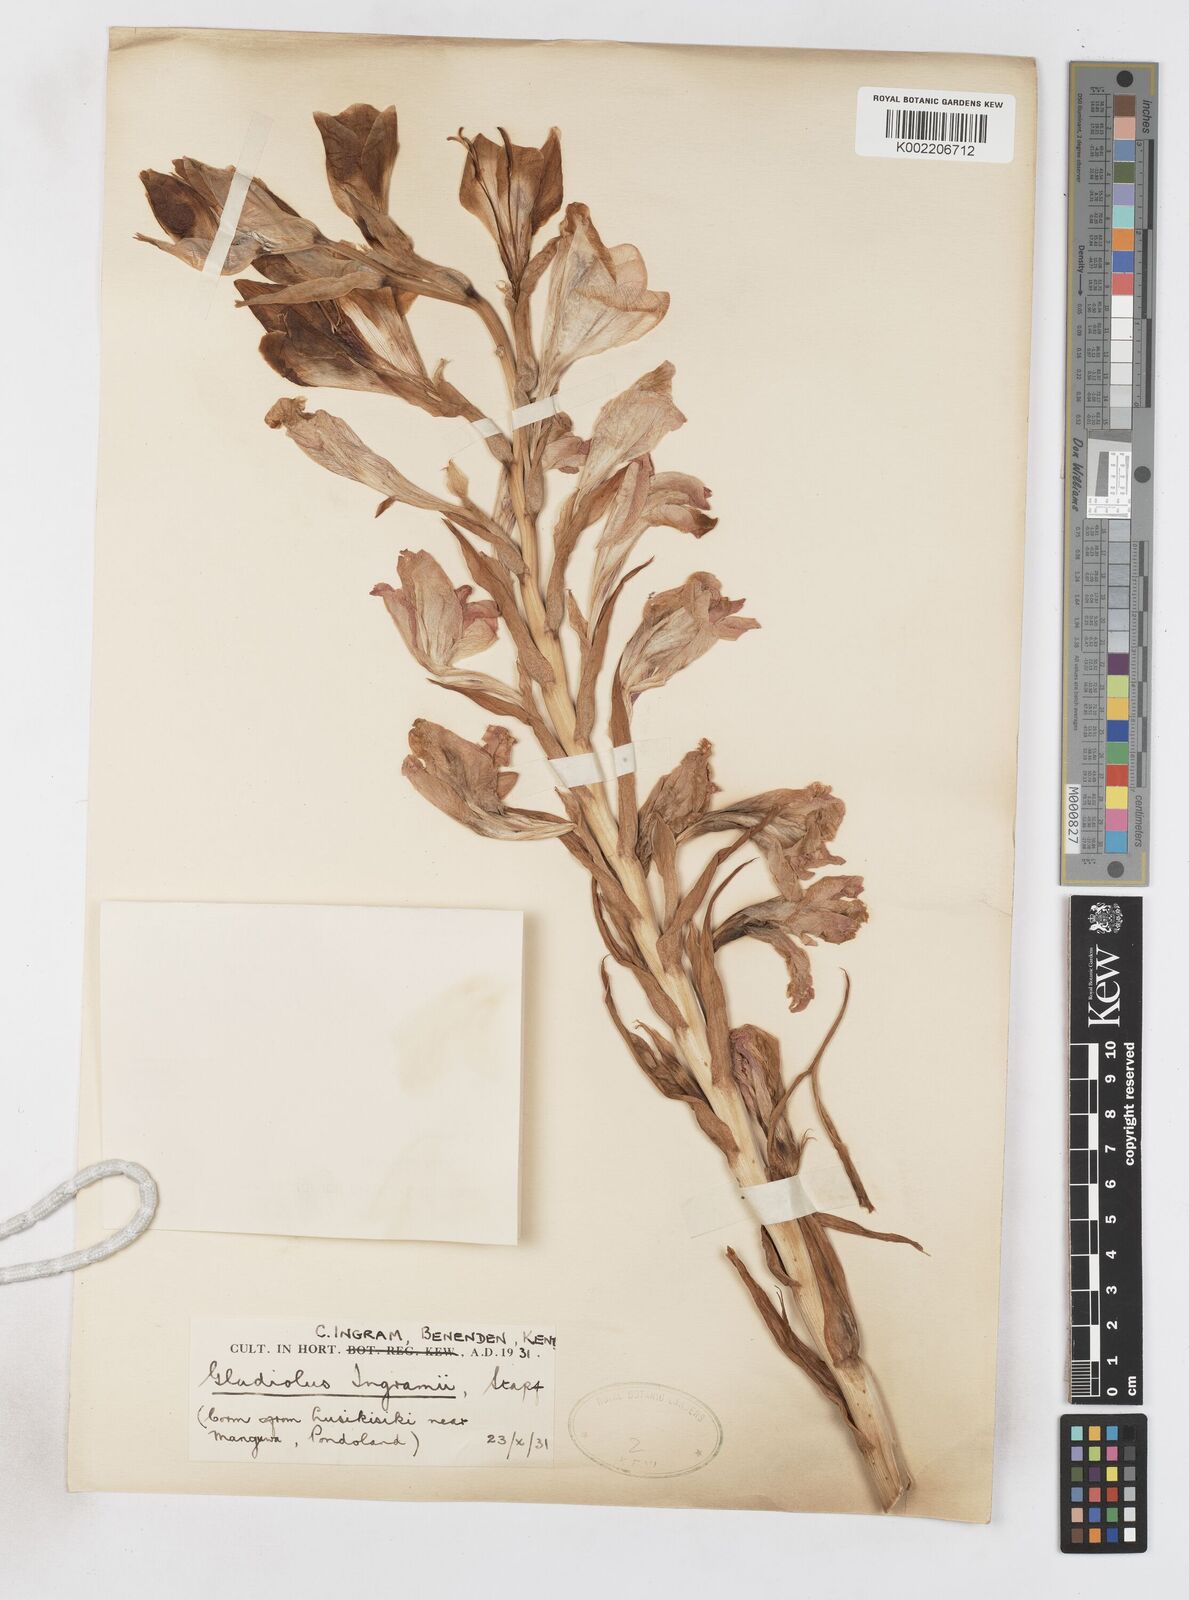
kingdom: Plantae
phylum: Tracheophyta
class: Liliopsida
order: Asparagales
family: Iridaceae
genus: Gladiolus
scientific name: Gladiolus
